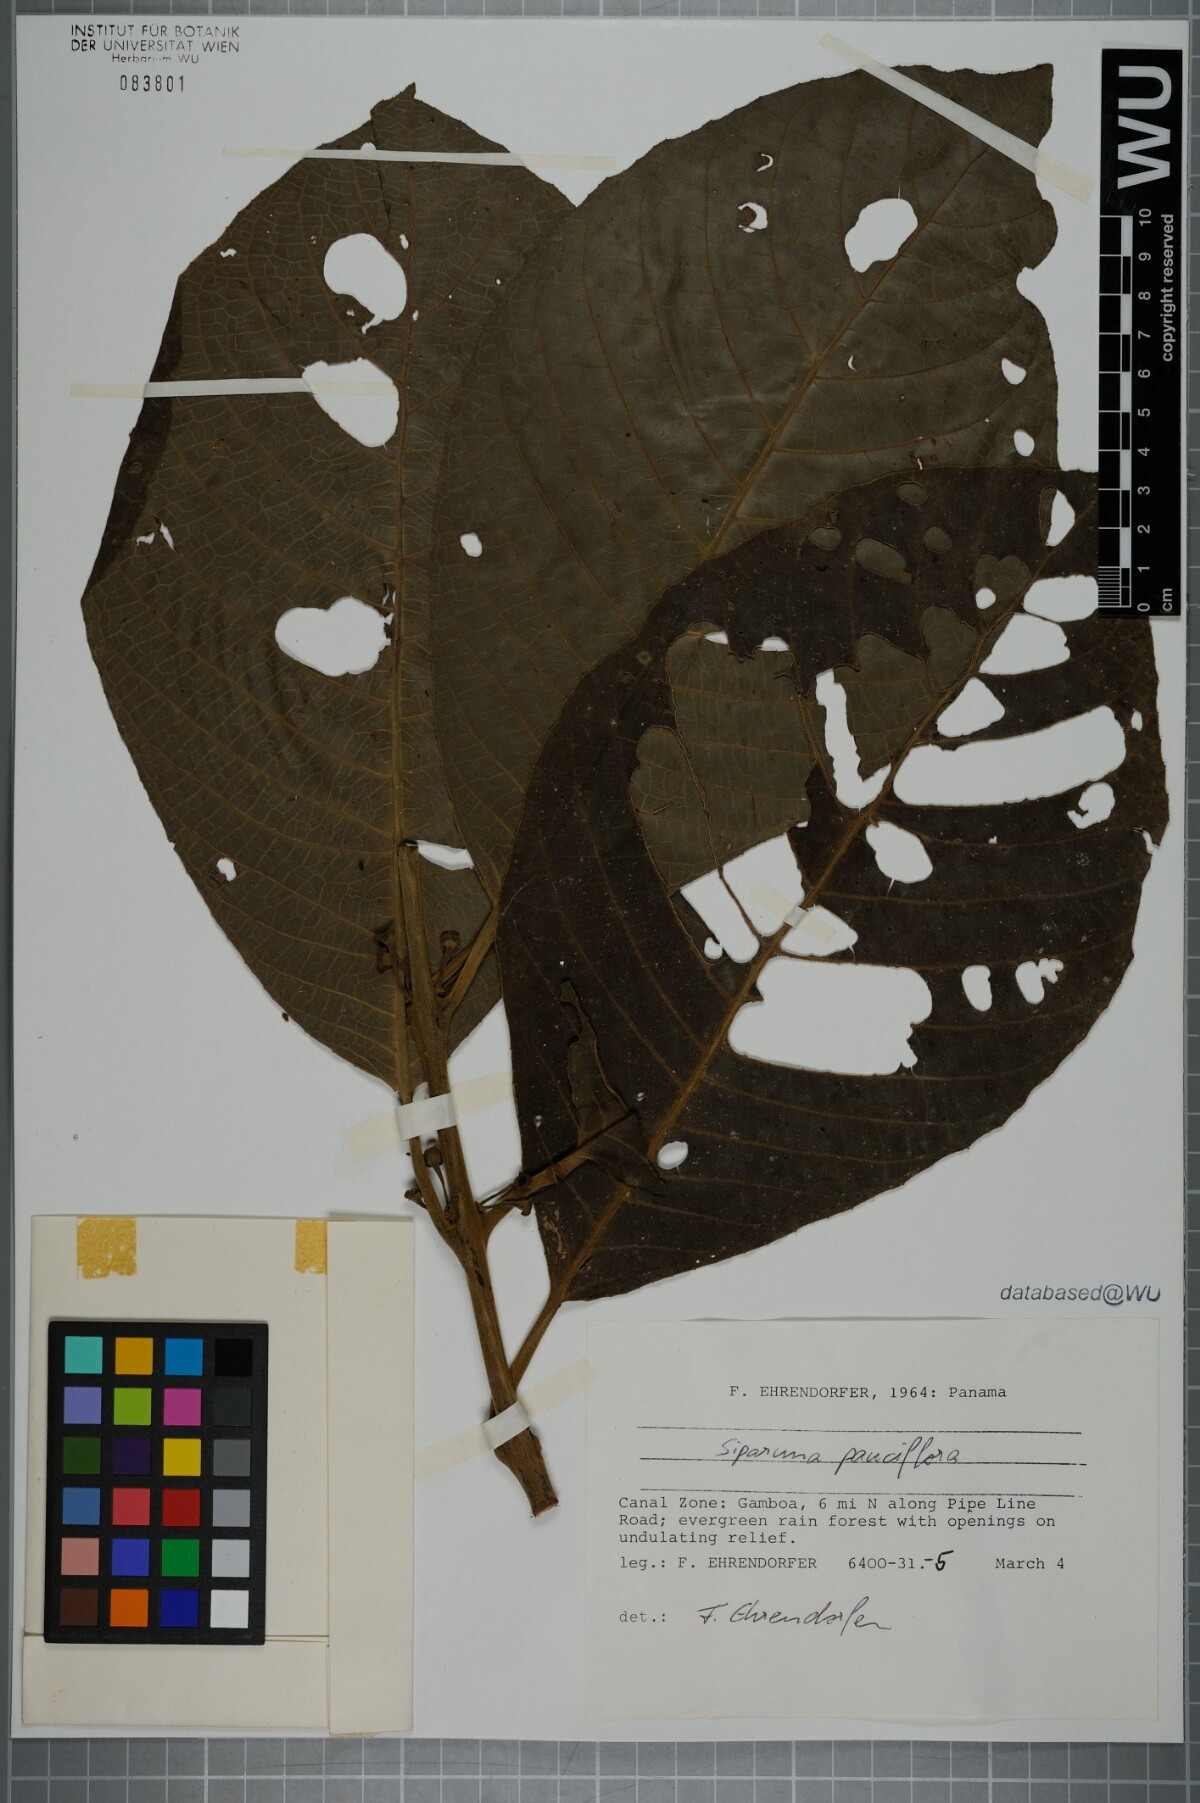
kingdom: Plantae
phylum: Tracheophyta
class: Magnoliopsida
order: Laurales
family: Siparunaceae
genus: Siparuna
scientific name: Siparuna pauciflora
